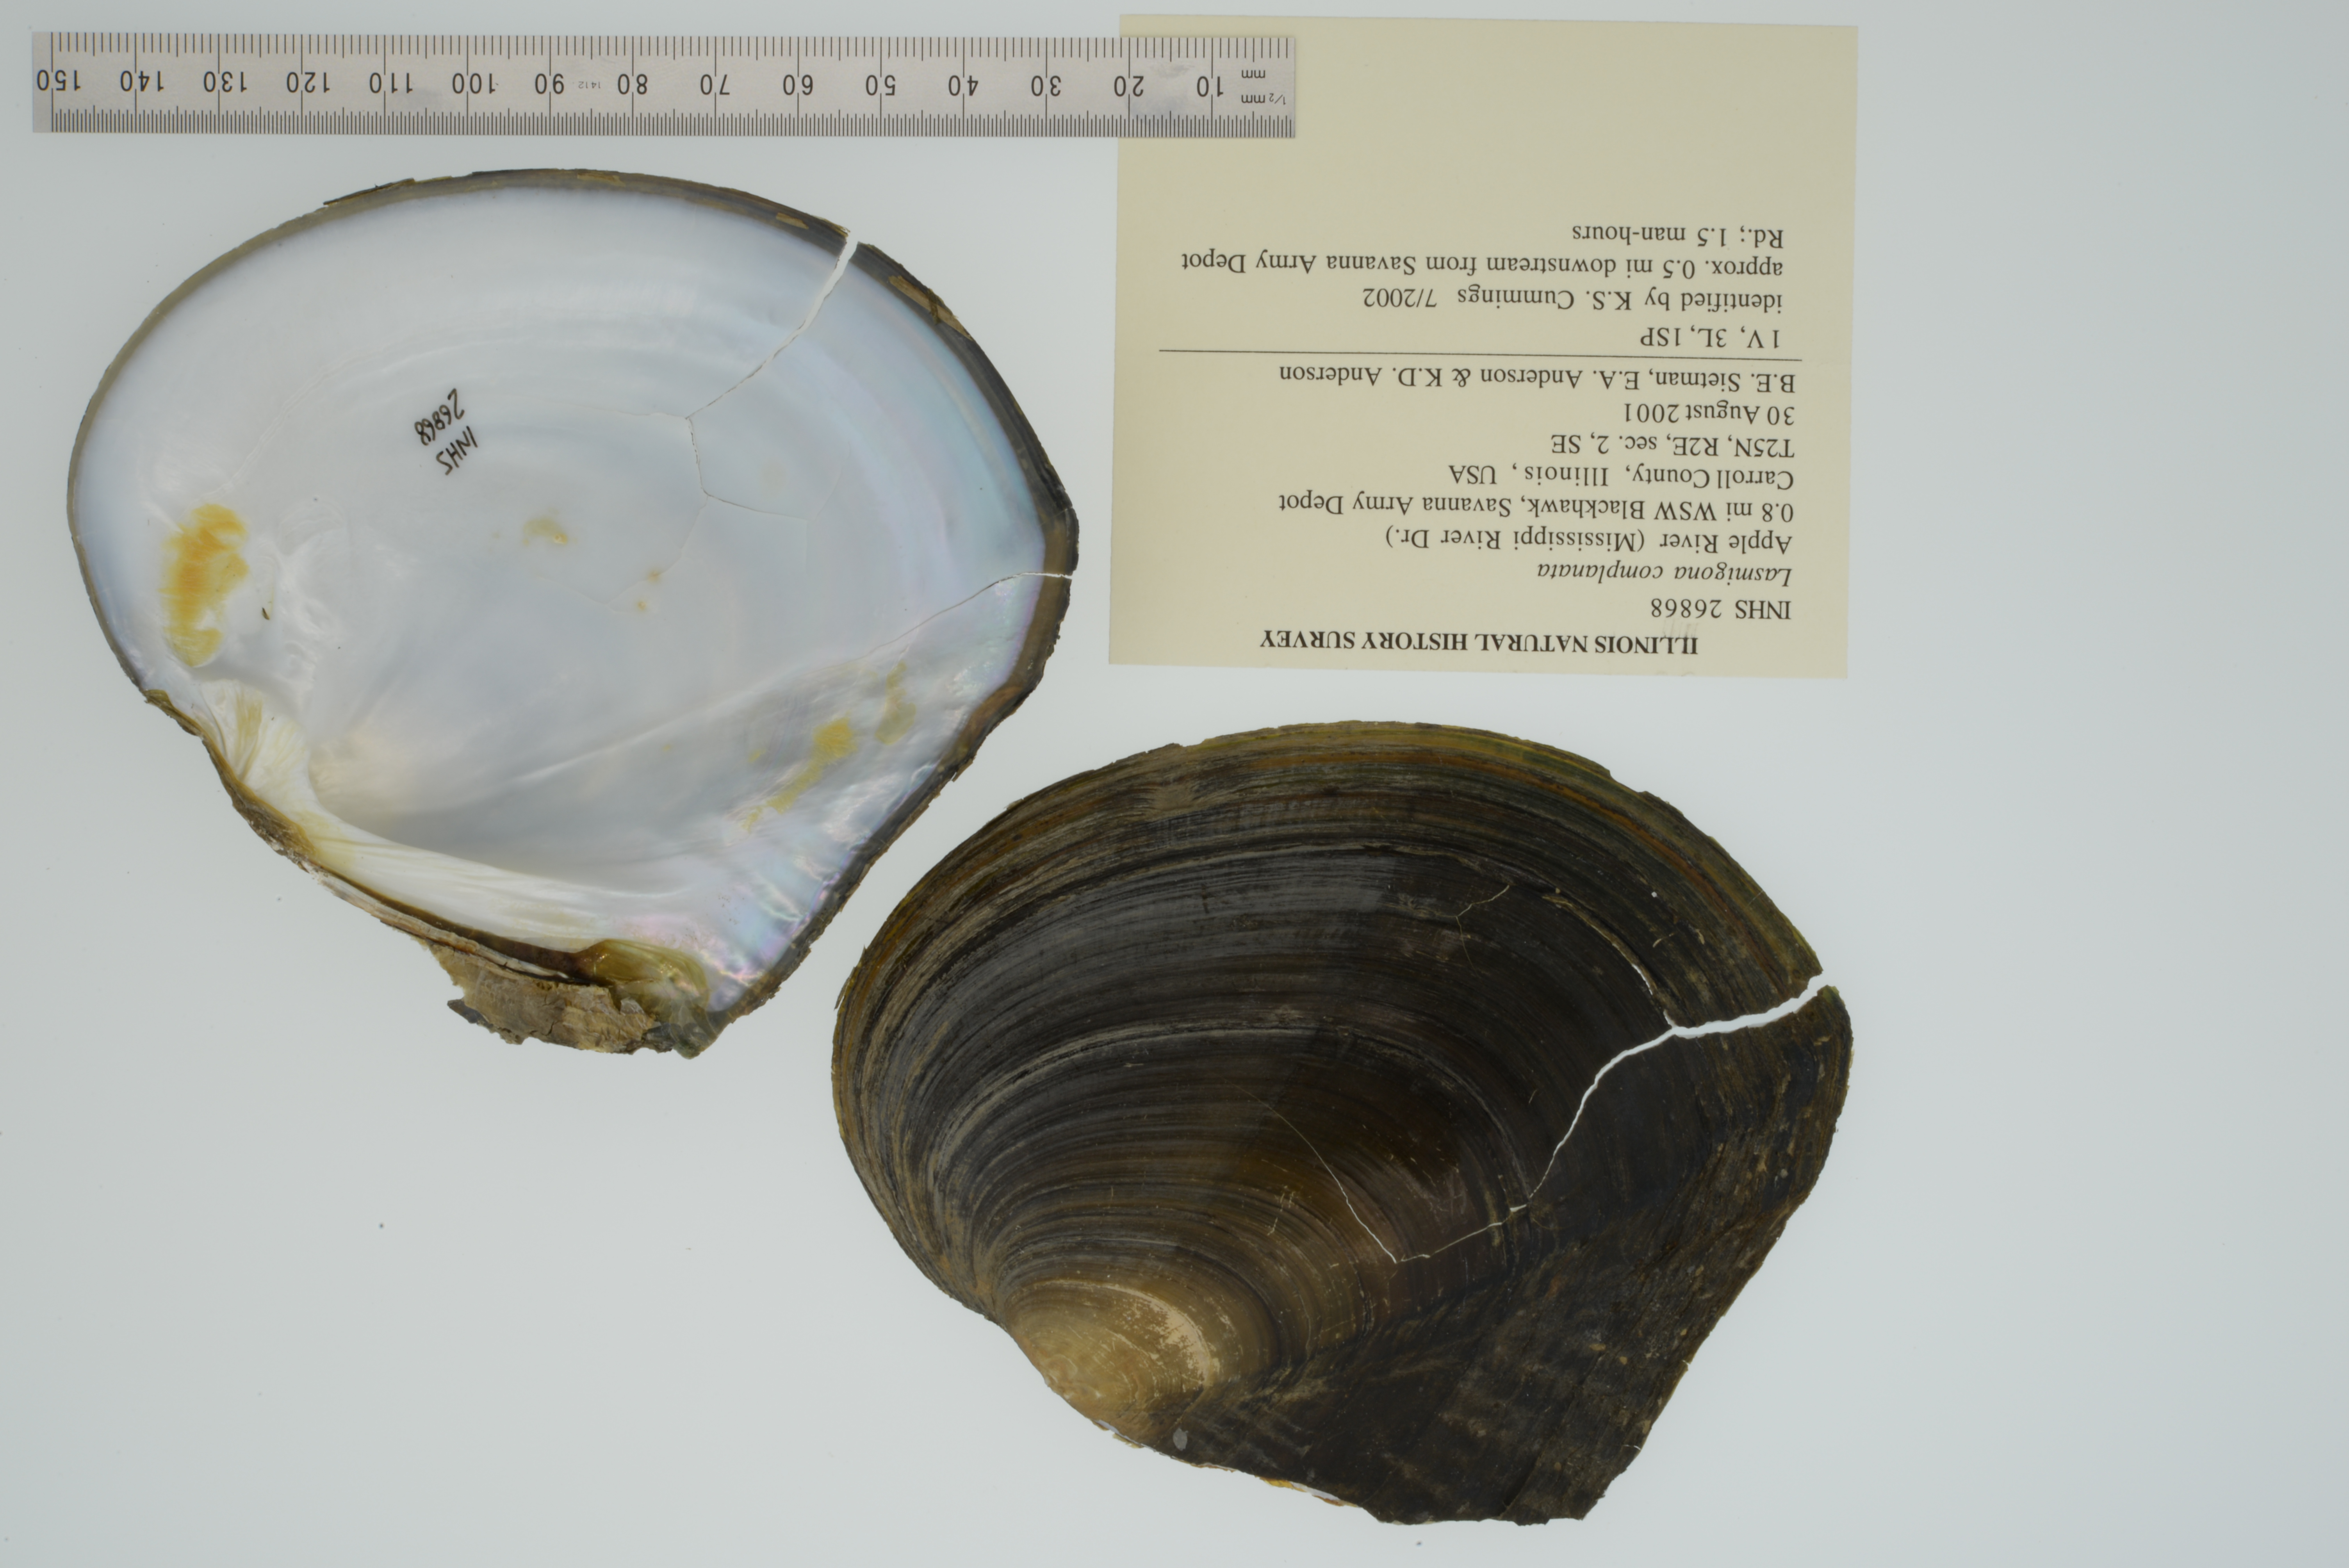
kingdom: Animalia
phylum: Mollusca
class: Bivalvia
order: Unionida
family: Unionidae
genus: Lasmigona
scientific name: Lasmigona complanata
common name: White heelsplitter
